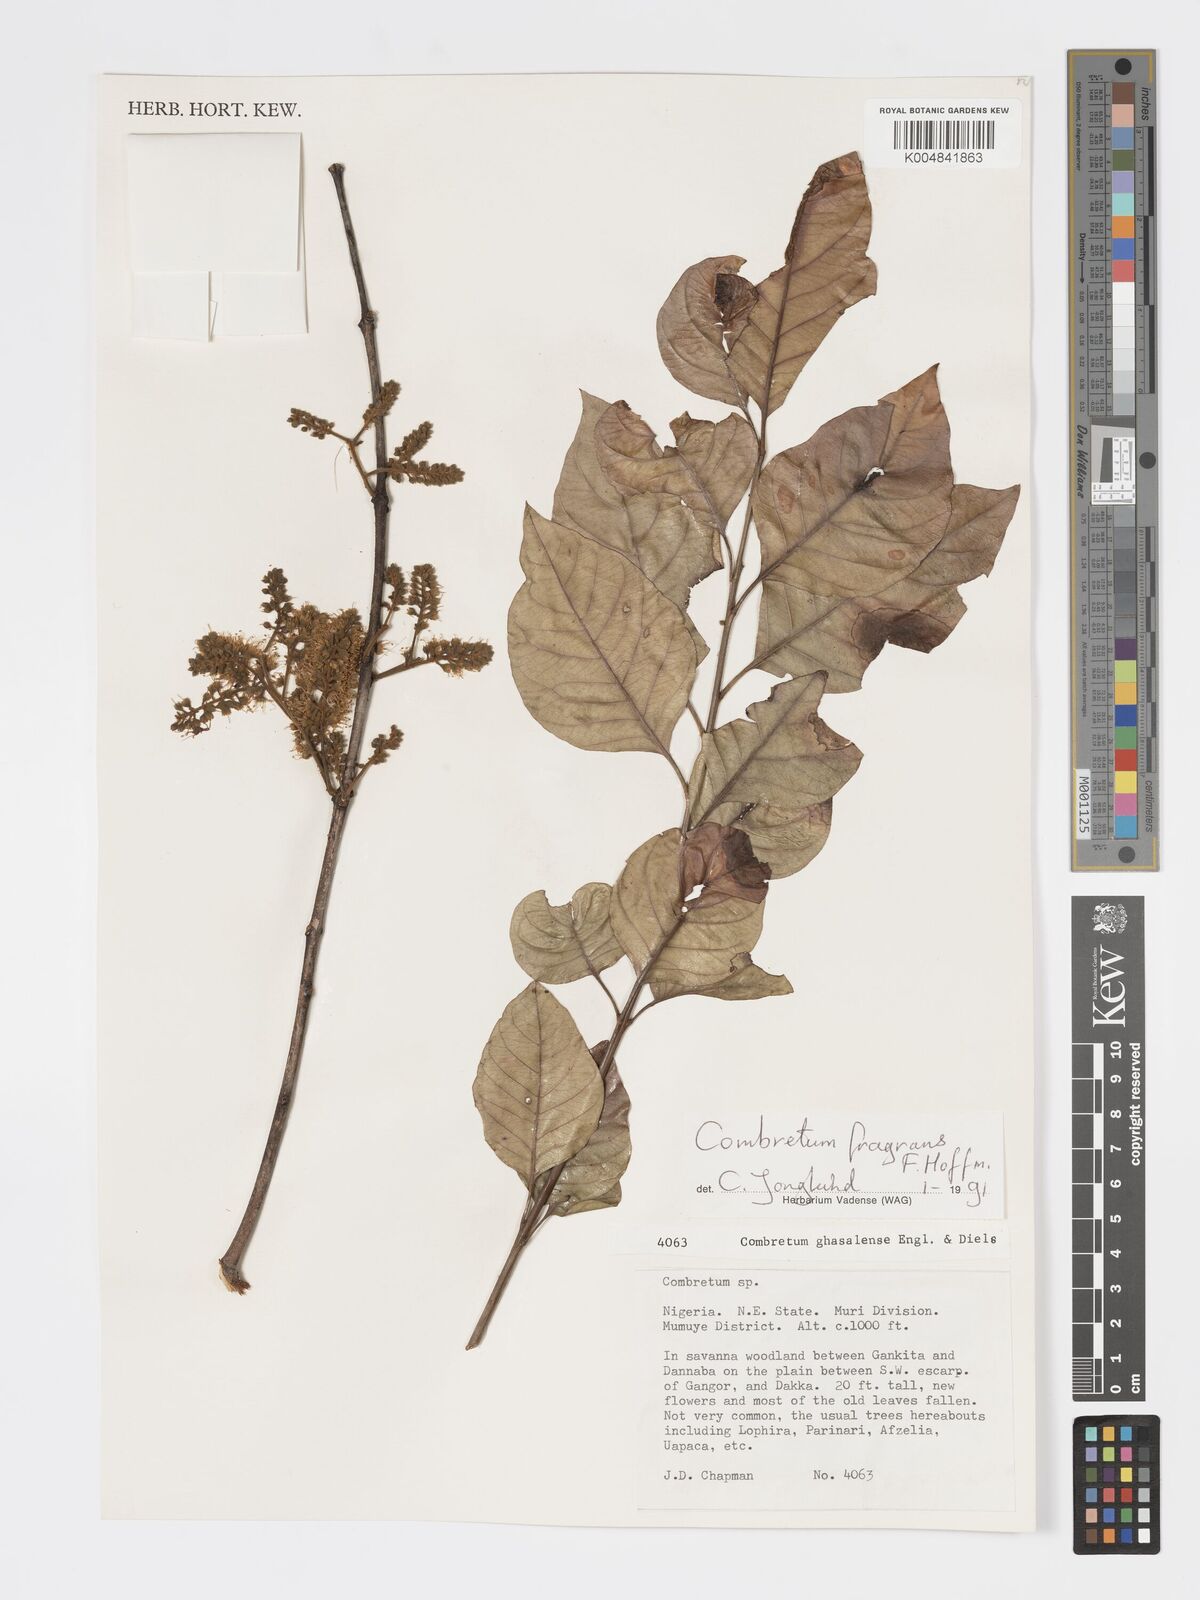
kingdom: Plantae
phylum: Tracheophyta
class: Magnoliopsida
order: Myrtales
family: Combretaceae
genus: Combretum
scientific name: Combretum adenogonium
